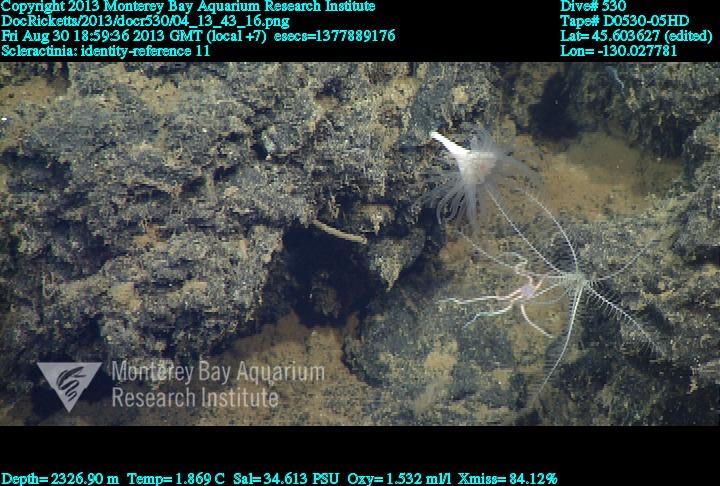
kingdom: Animalia
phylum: Cnidaria
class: Anthozoa
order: Scleractinia
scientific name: Scleractinia
